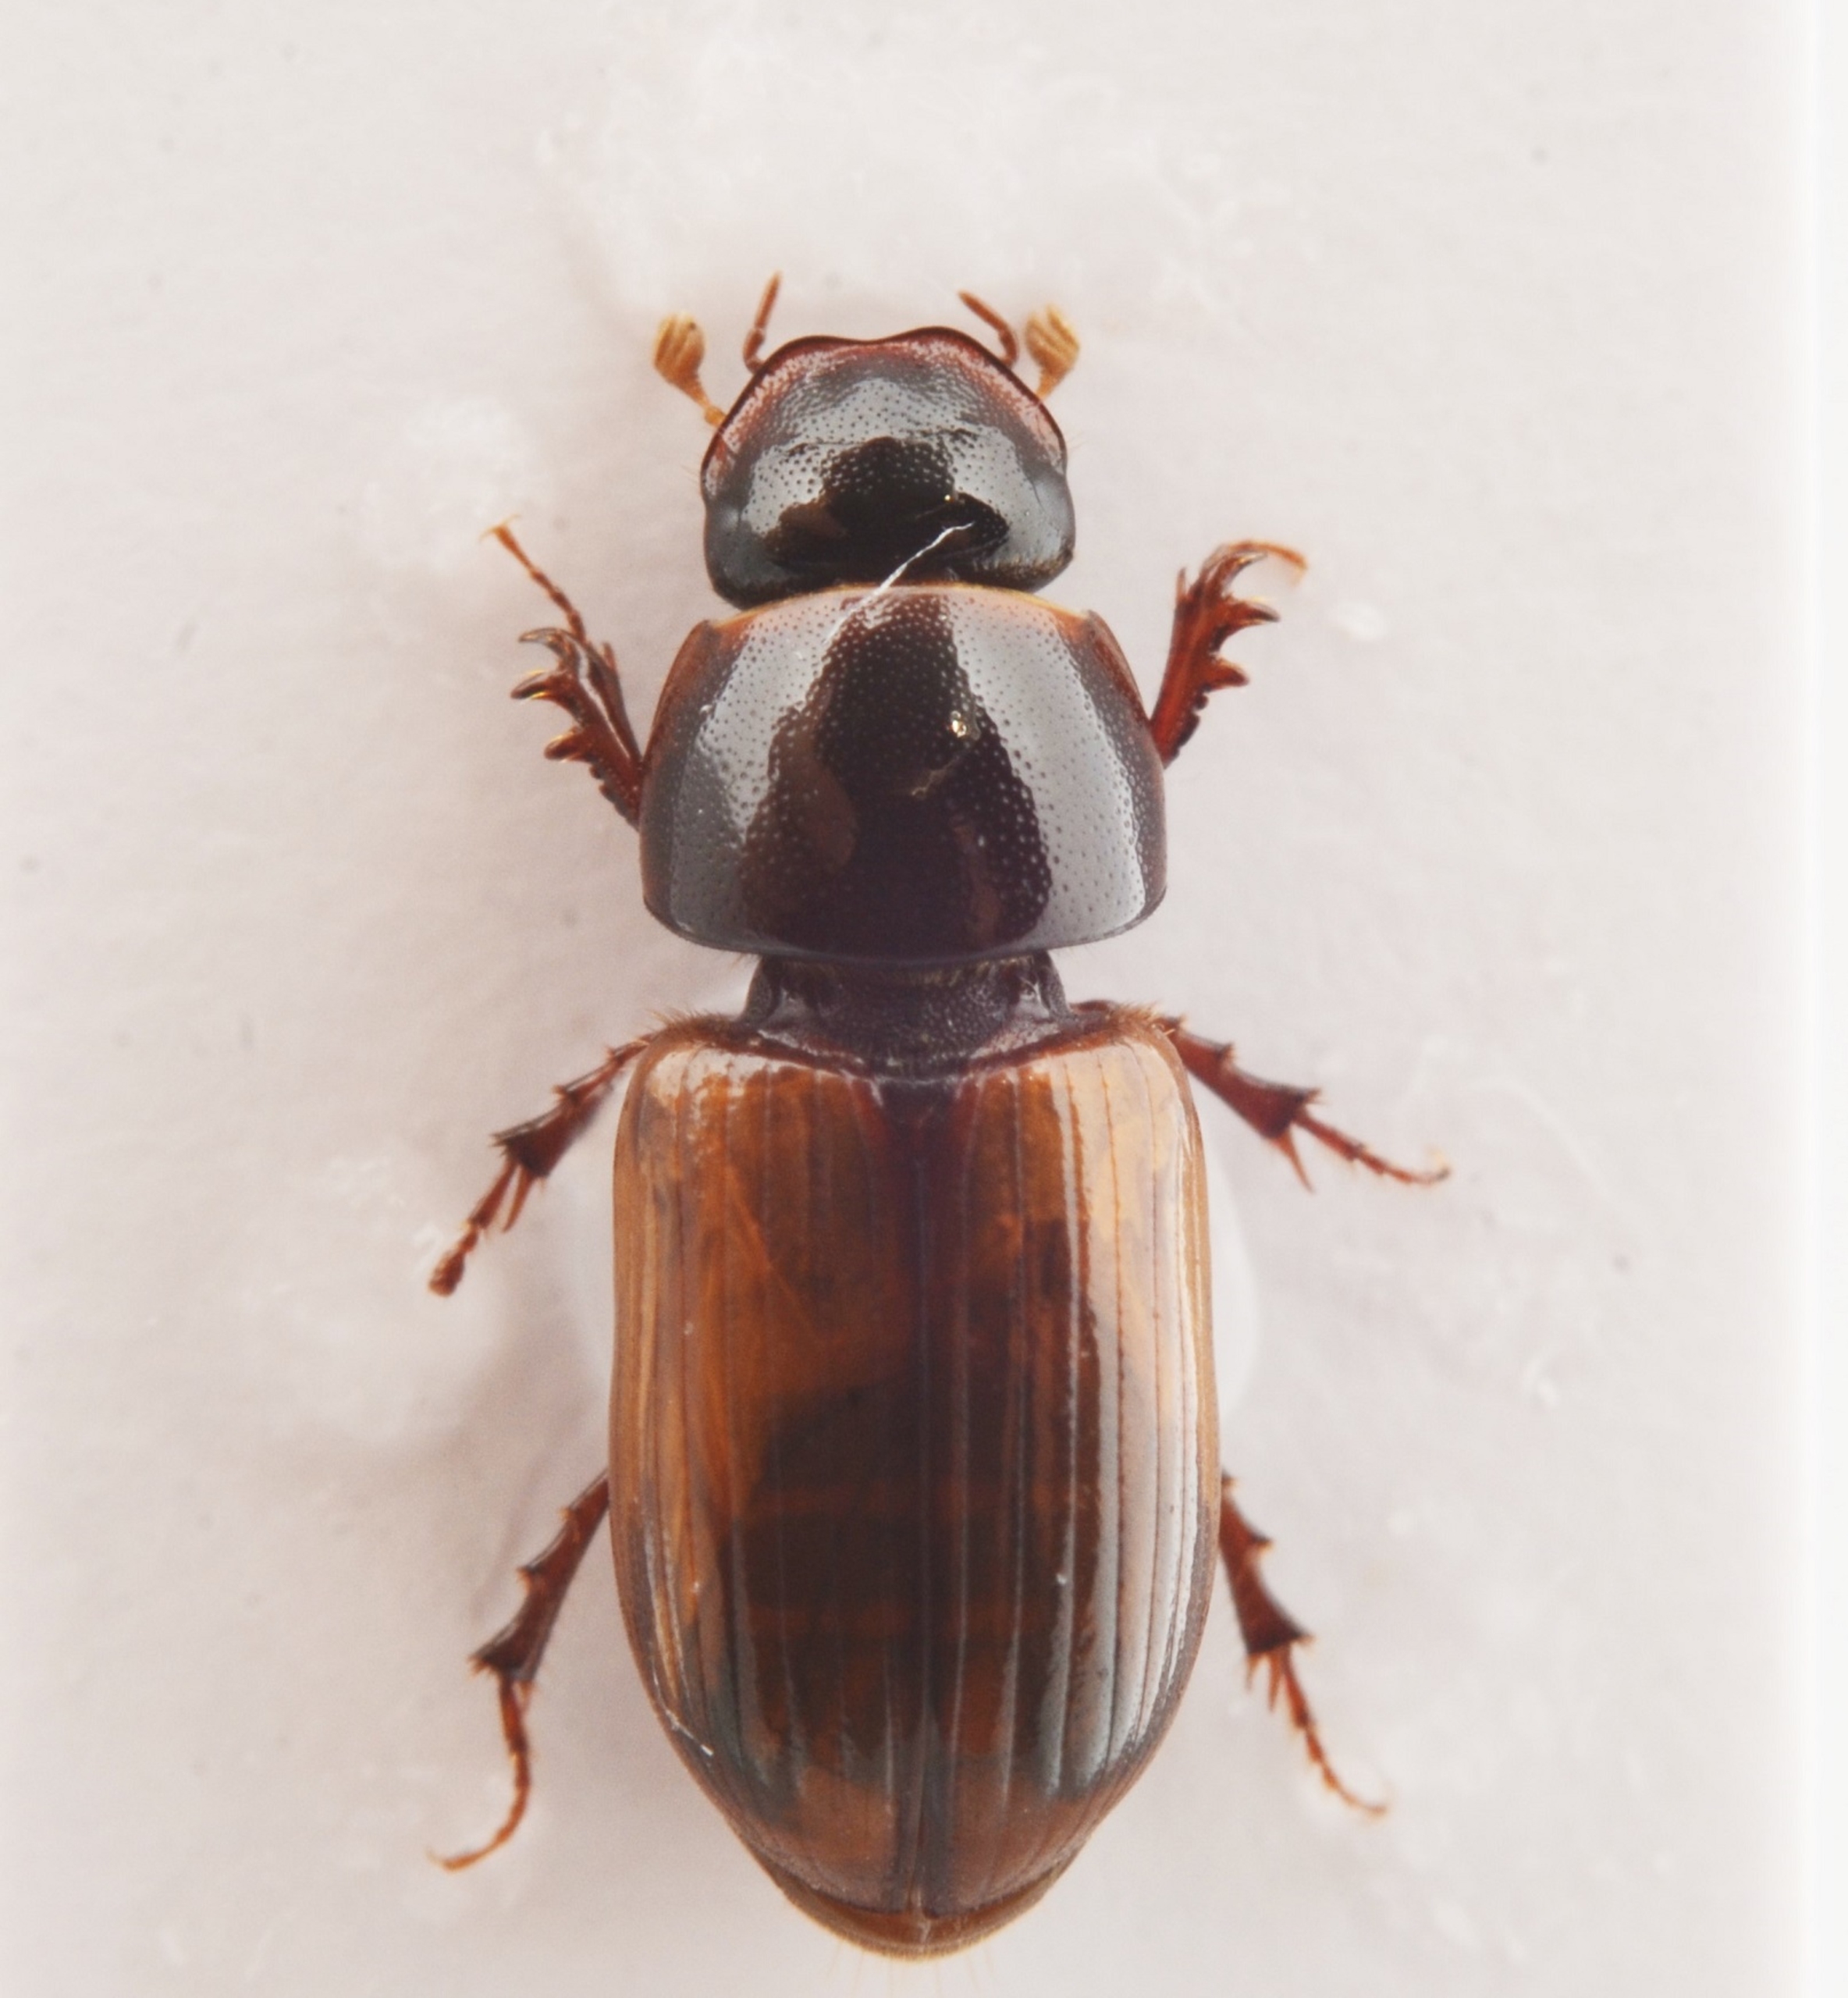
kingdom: Animalia
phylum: Arthropoda
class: Insecta
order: Coleoptera
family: Scarabaeidae
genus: Bodiloides
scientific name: Bodiloides ictericus
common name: Slank møgbille
